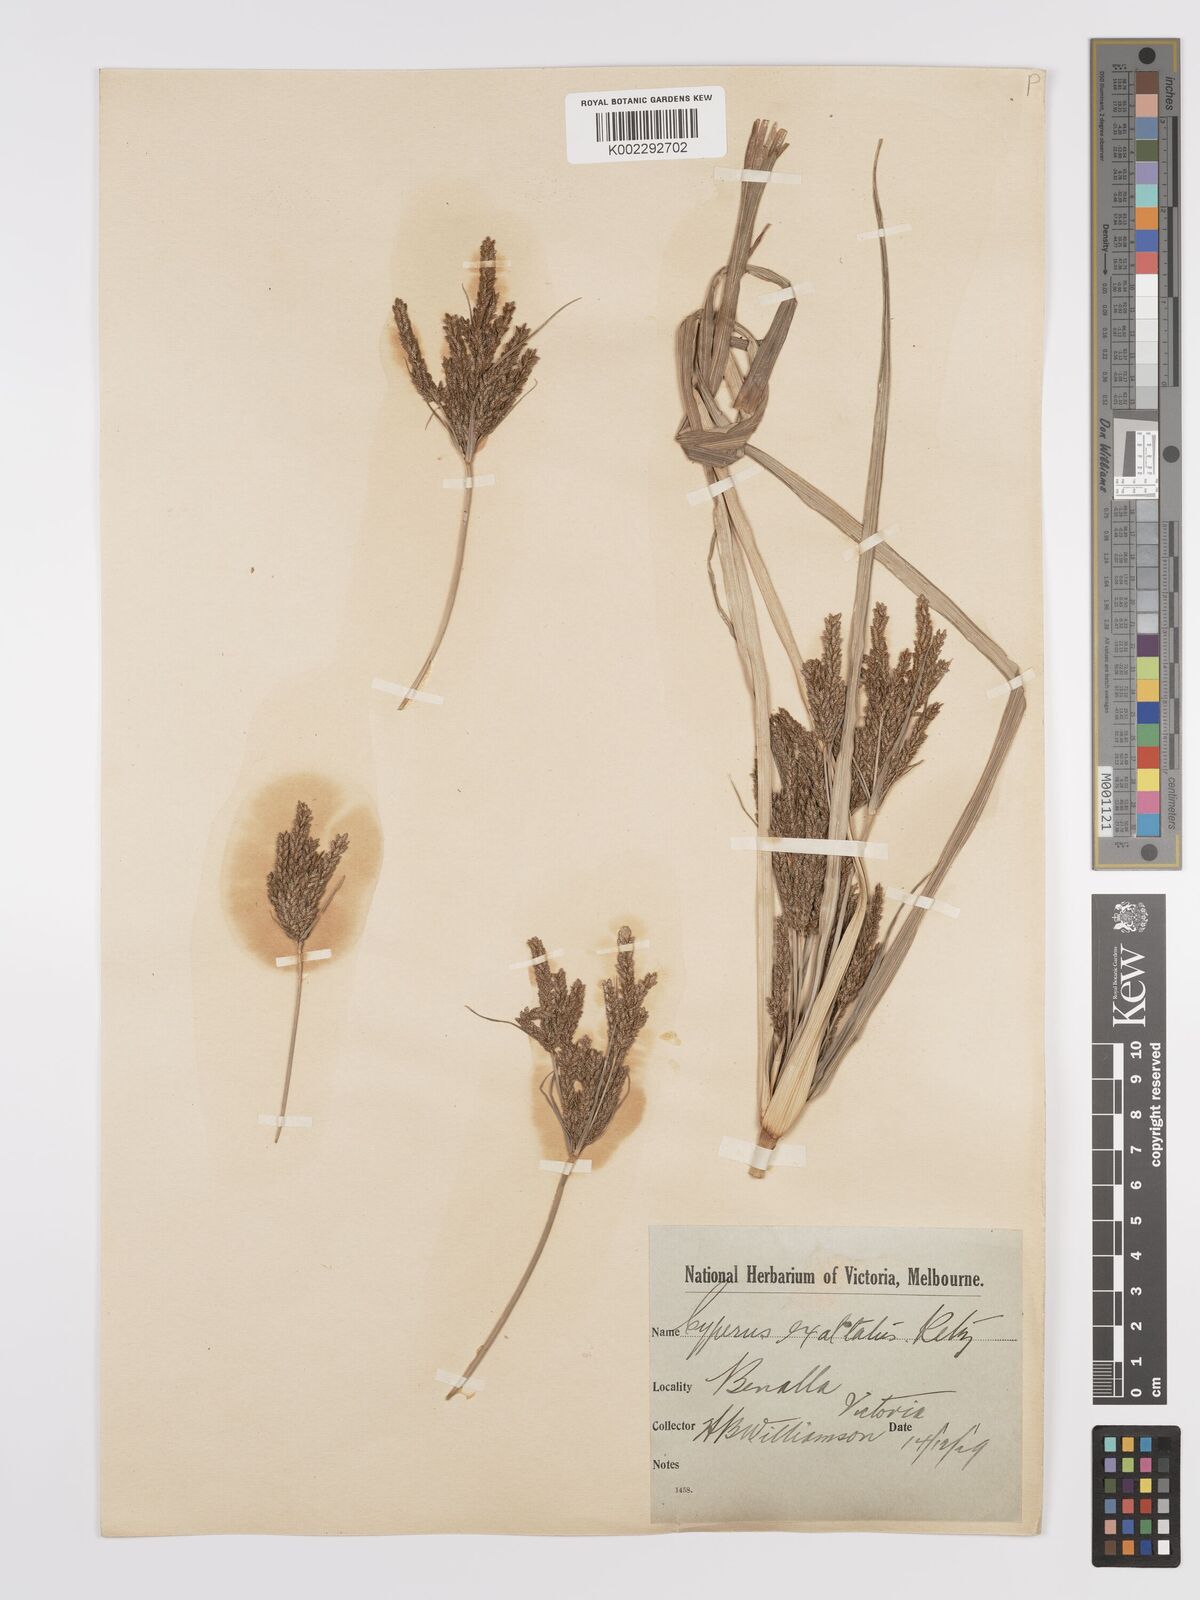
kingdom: Plantae
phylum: Tracheophyta
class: Liliopsida
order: Poales
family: Cyperaceae
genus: Cyperus
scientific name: Cyperus exaltatus
